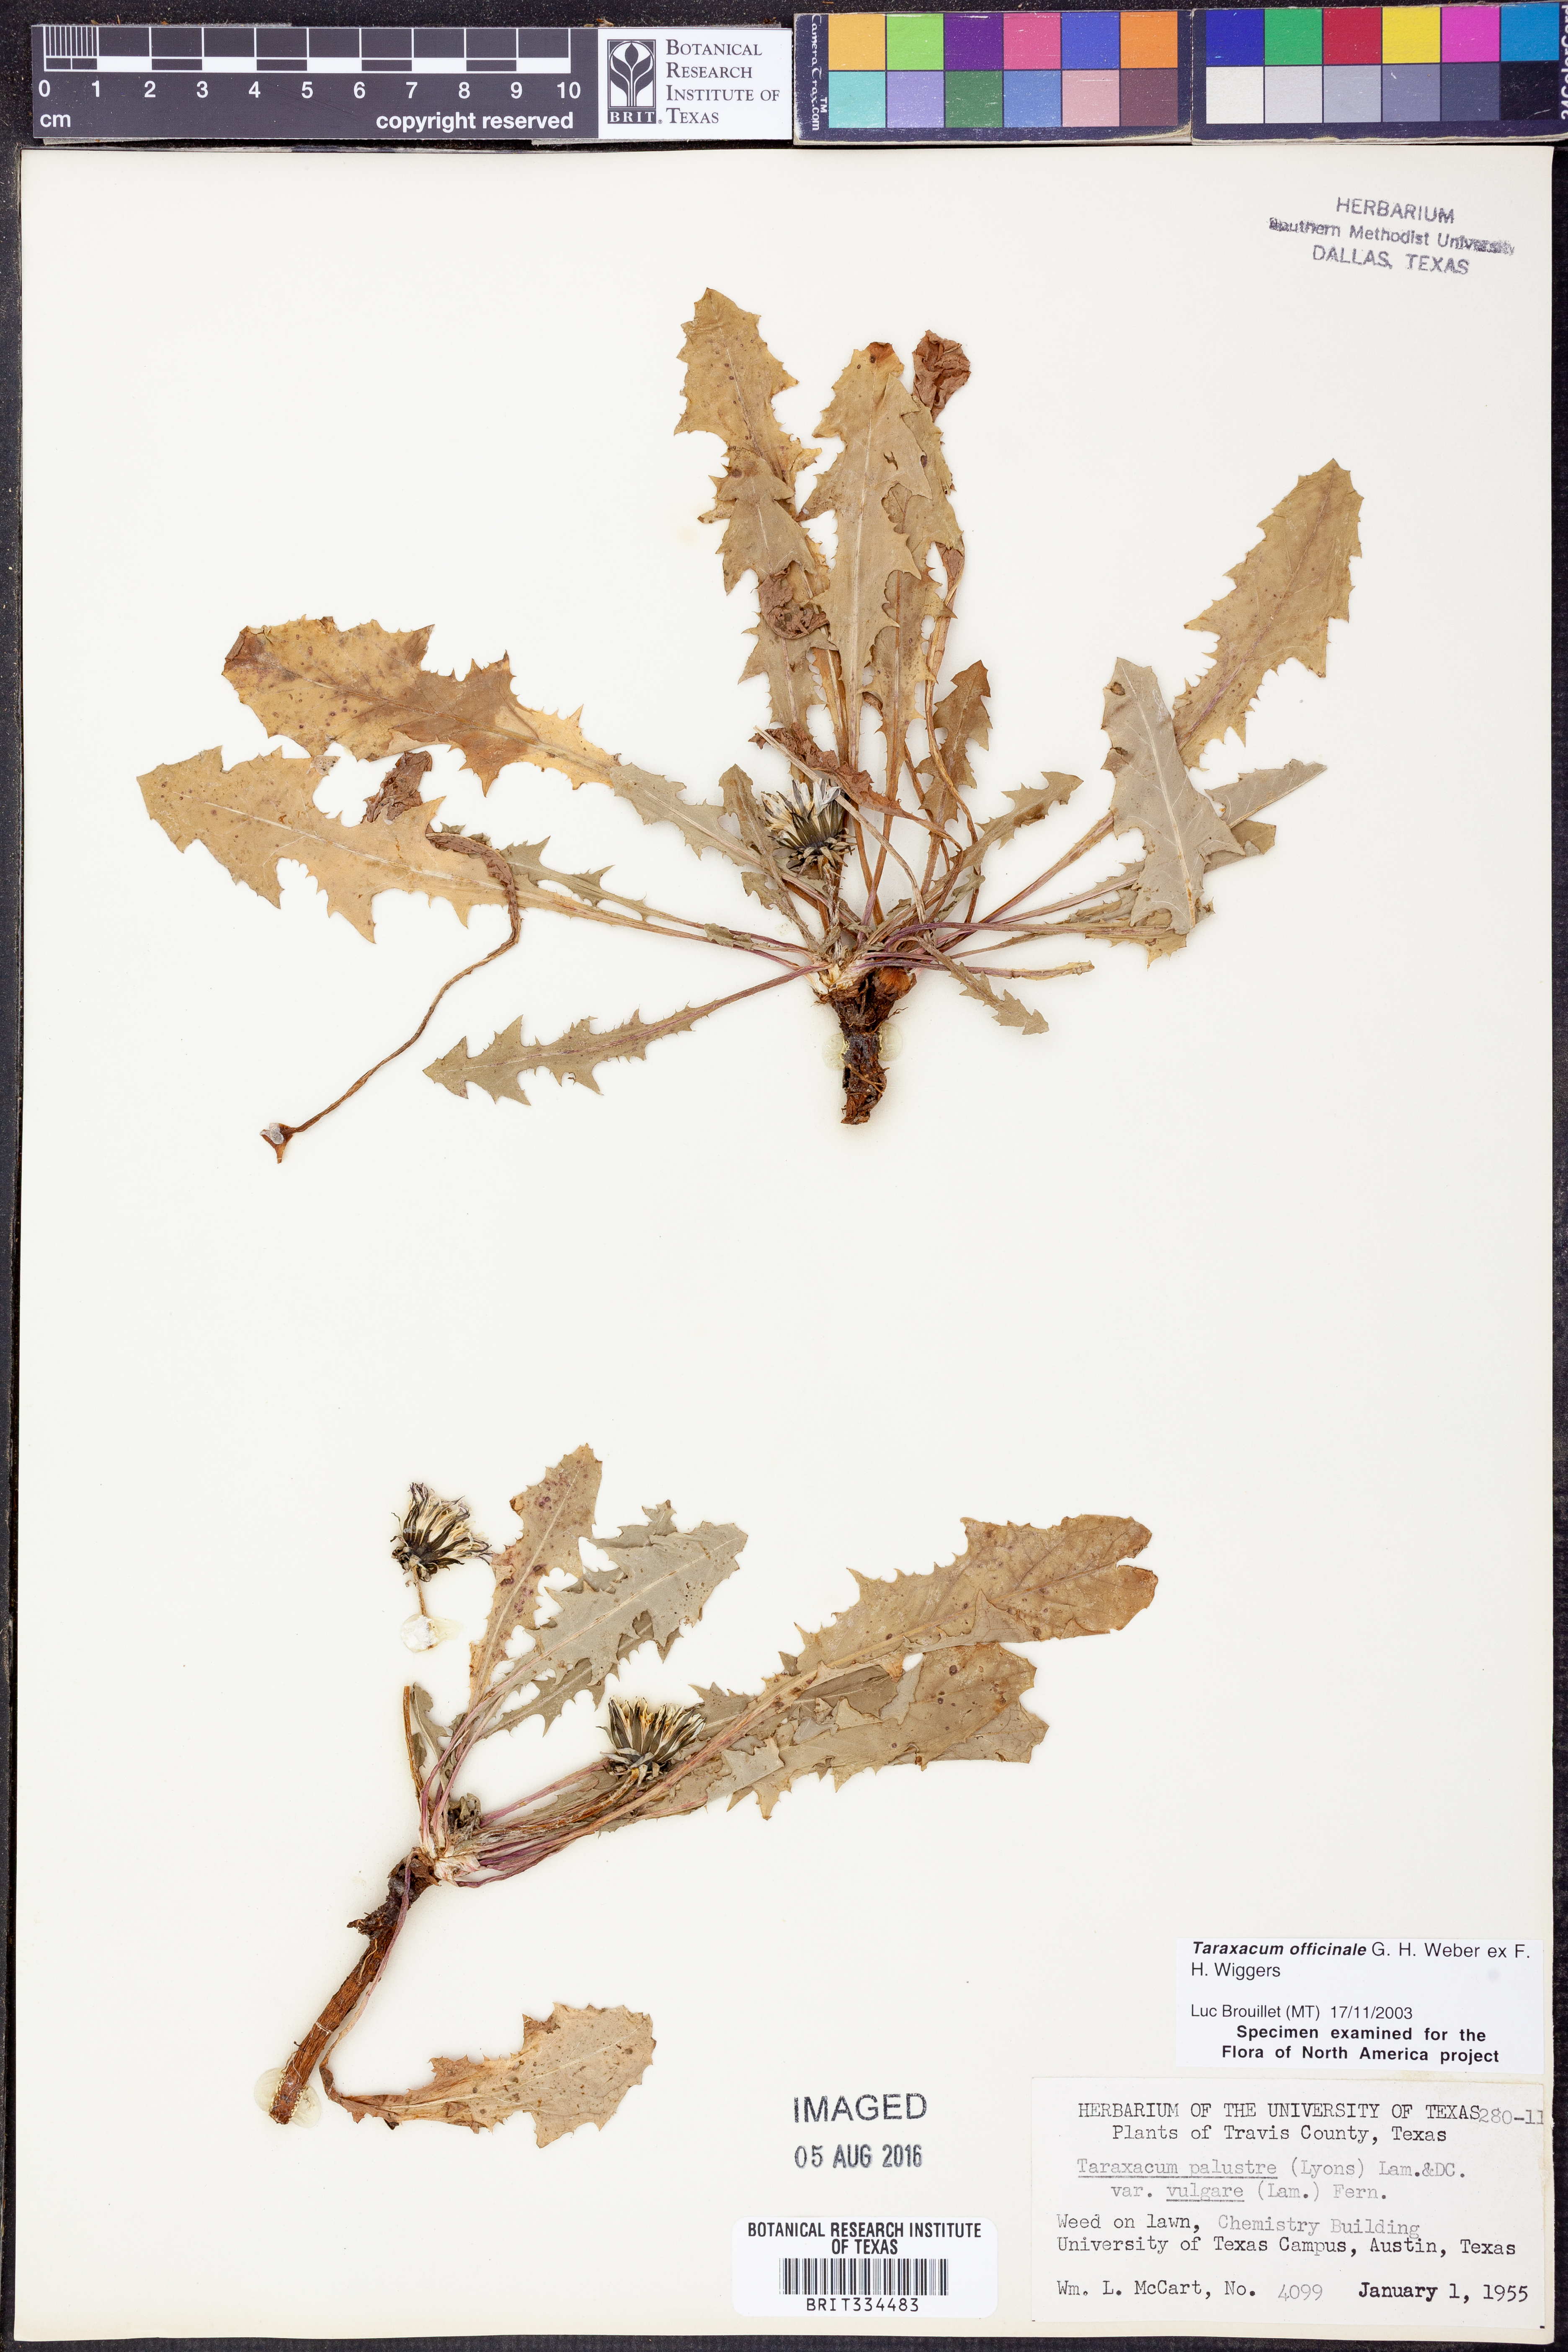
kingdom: Plantae
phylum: Tracheophyta
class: Magnoliopsida
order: Asterales
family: Asteraceae
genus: Taraxacum
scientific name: Taraxacum officinale
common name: Common dandelion
